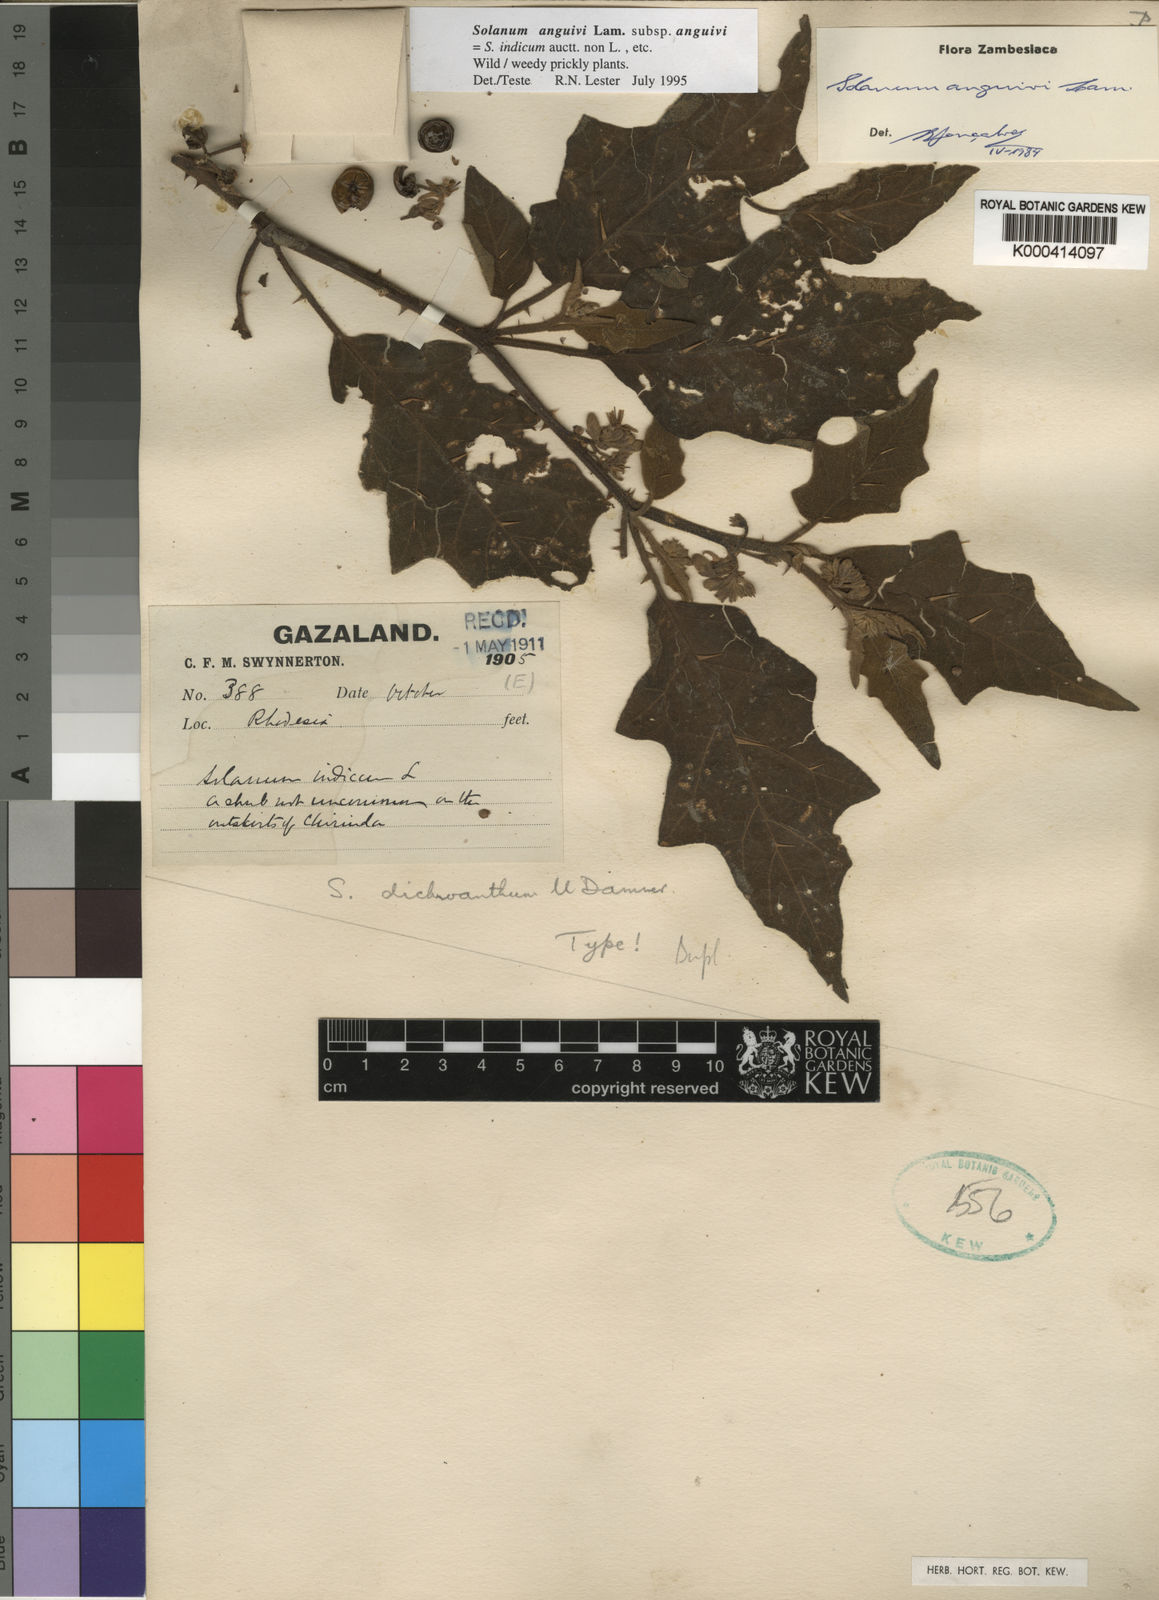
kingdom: Plantae
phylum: Tracheophyta
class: Magnoliopsida
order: Solanales
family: Solanaceae
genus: Solanum
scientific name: Solanum anguivi
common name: Forest bitterberry
